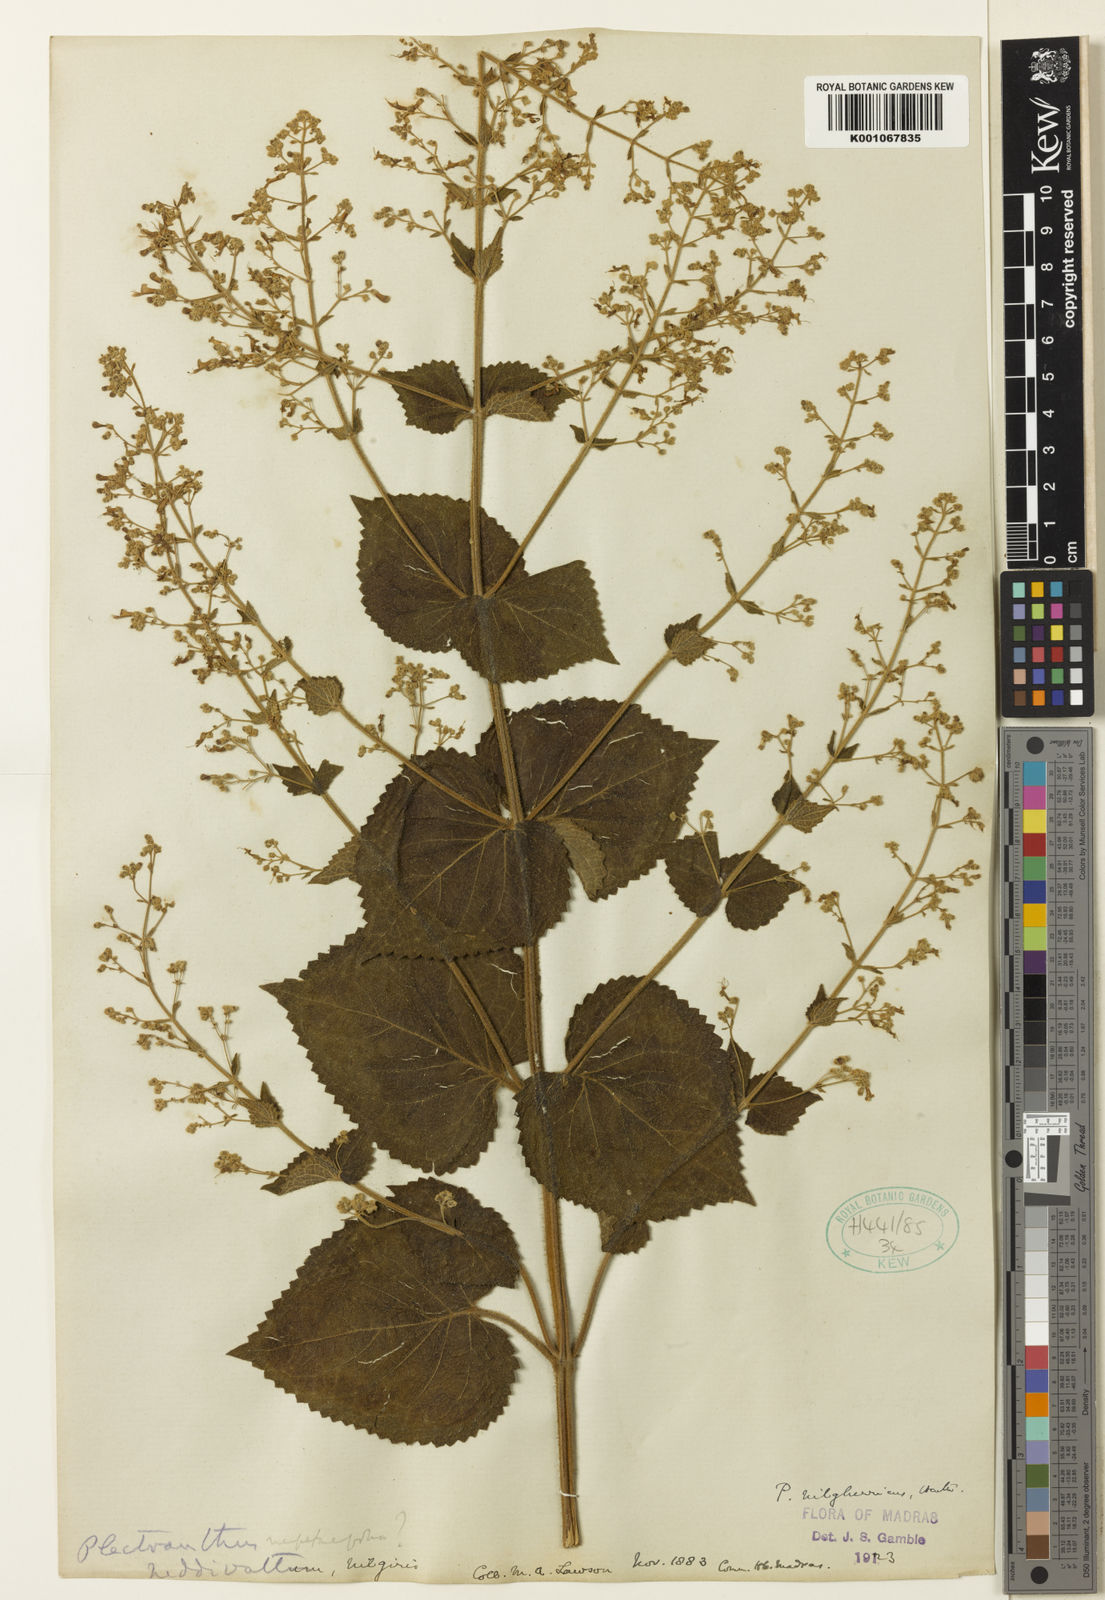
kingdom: Plantae
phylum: Tracheophyta
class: Magnoliopsida
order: Lamiales
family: Lamiaceae
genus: Isodon
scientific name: Isodon nilgherricus
